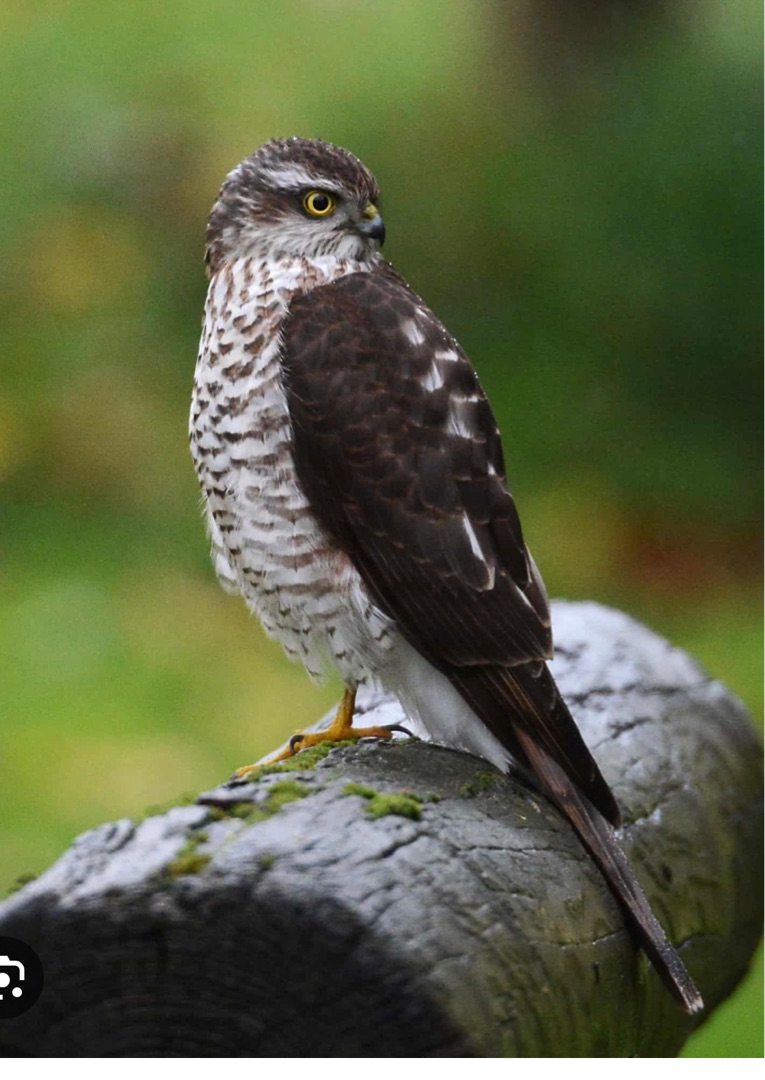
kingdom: Animalia
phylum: Chordata
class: Aves
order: Accipitriformes
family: Accipitridae
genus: Accipiter
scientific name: Accipiter nisus
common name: Spurvehøg
